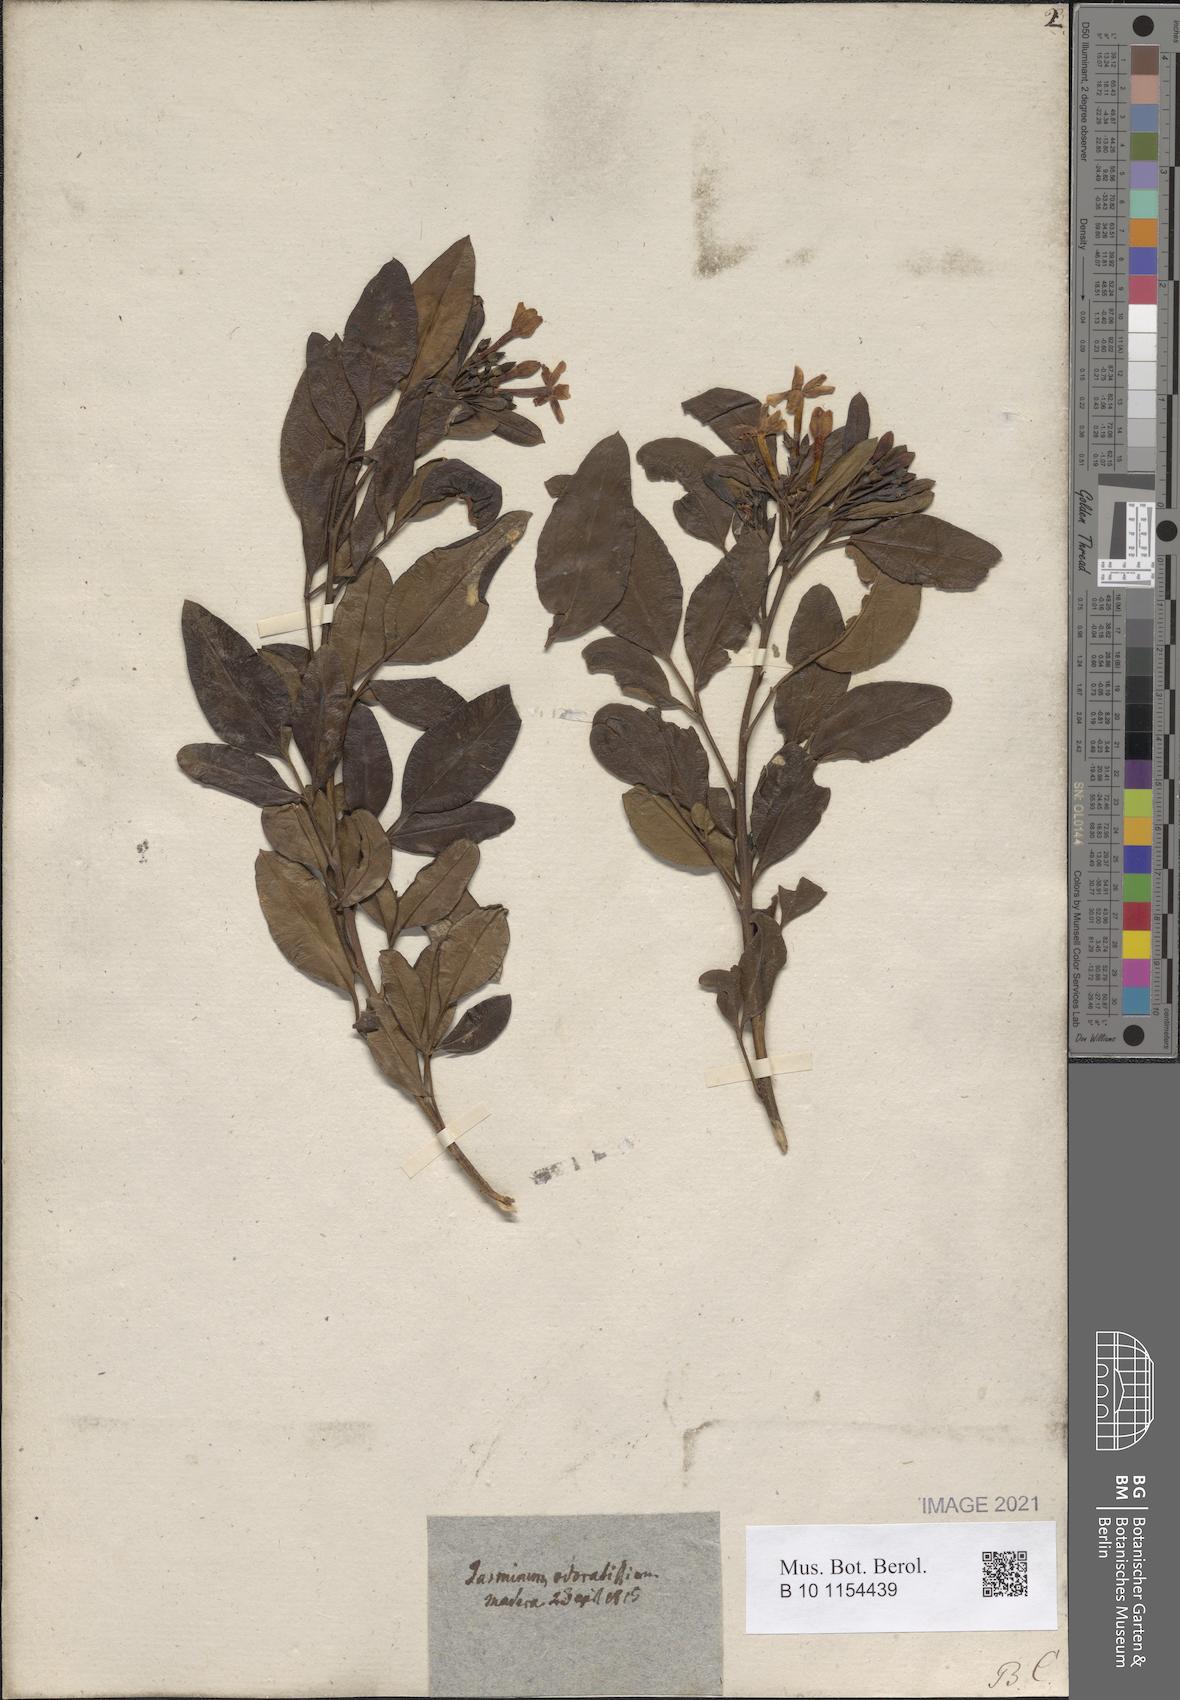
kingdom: Plantae
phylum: Tracheophyta
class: Magnoliopsida
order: Lamiales
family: Oleaceae
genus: Chrysojasminum
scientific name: Chrysojasminum odoratissimum
